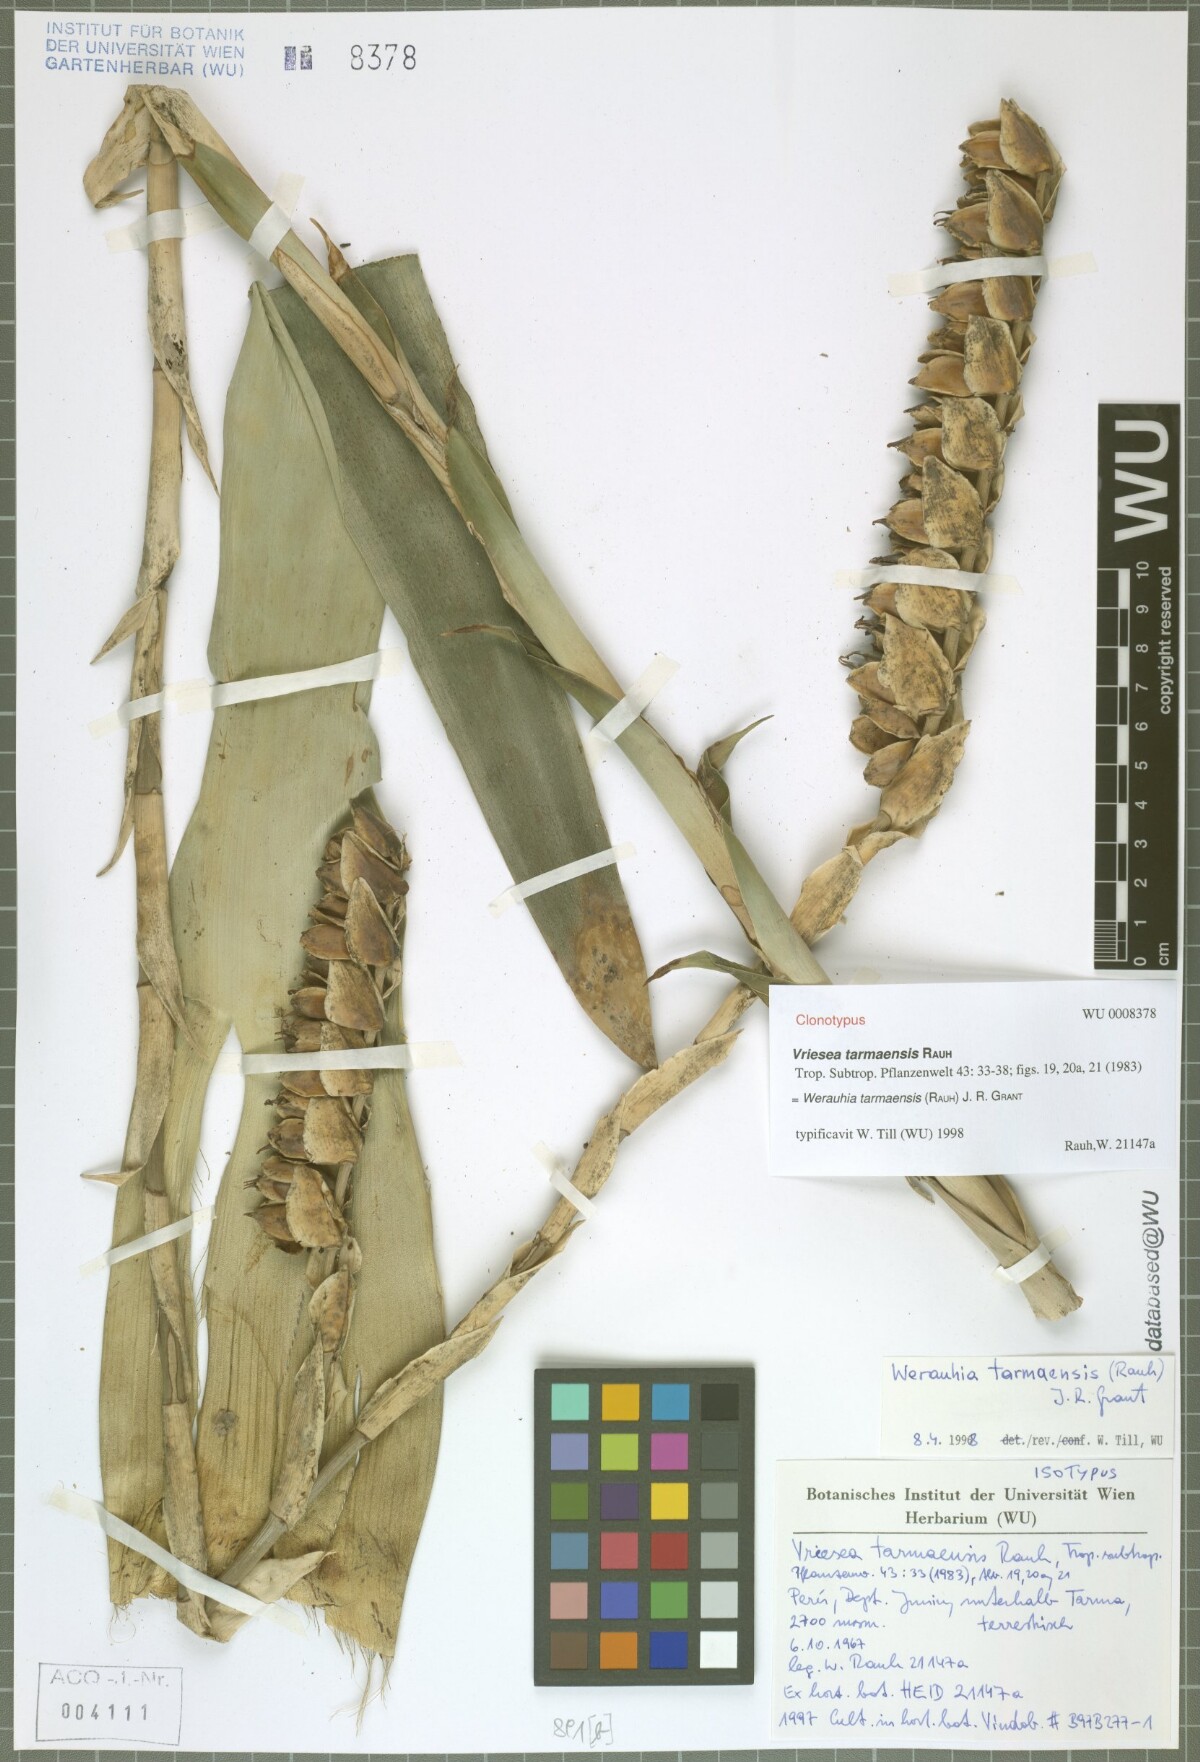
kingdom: Plantae
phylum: Tracheophyta
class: Liliopsida
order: Poales
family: Bromeliaceae
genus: Werauhia
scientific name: Werauhia tarmaensis
